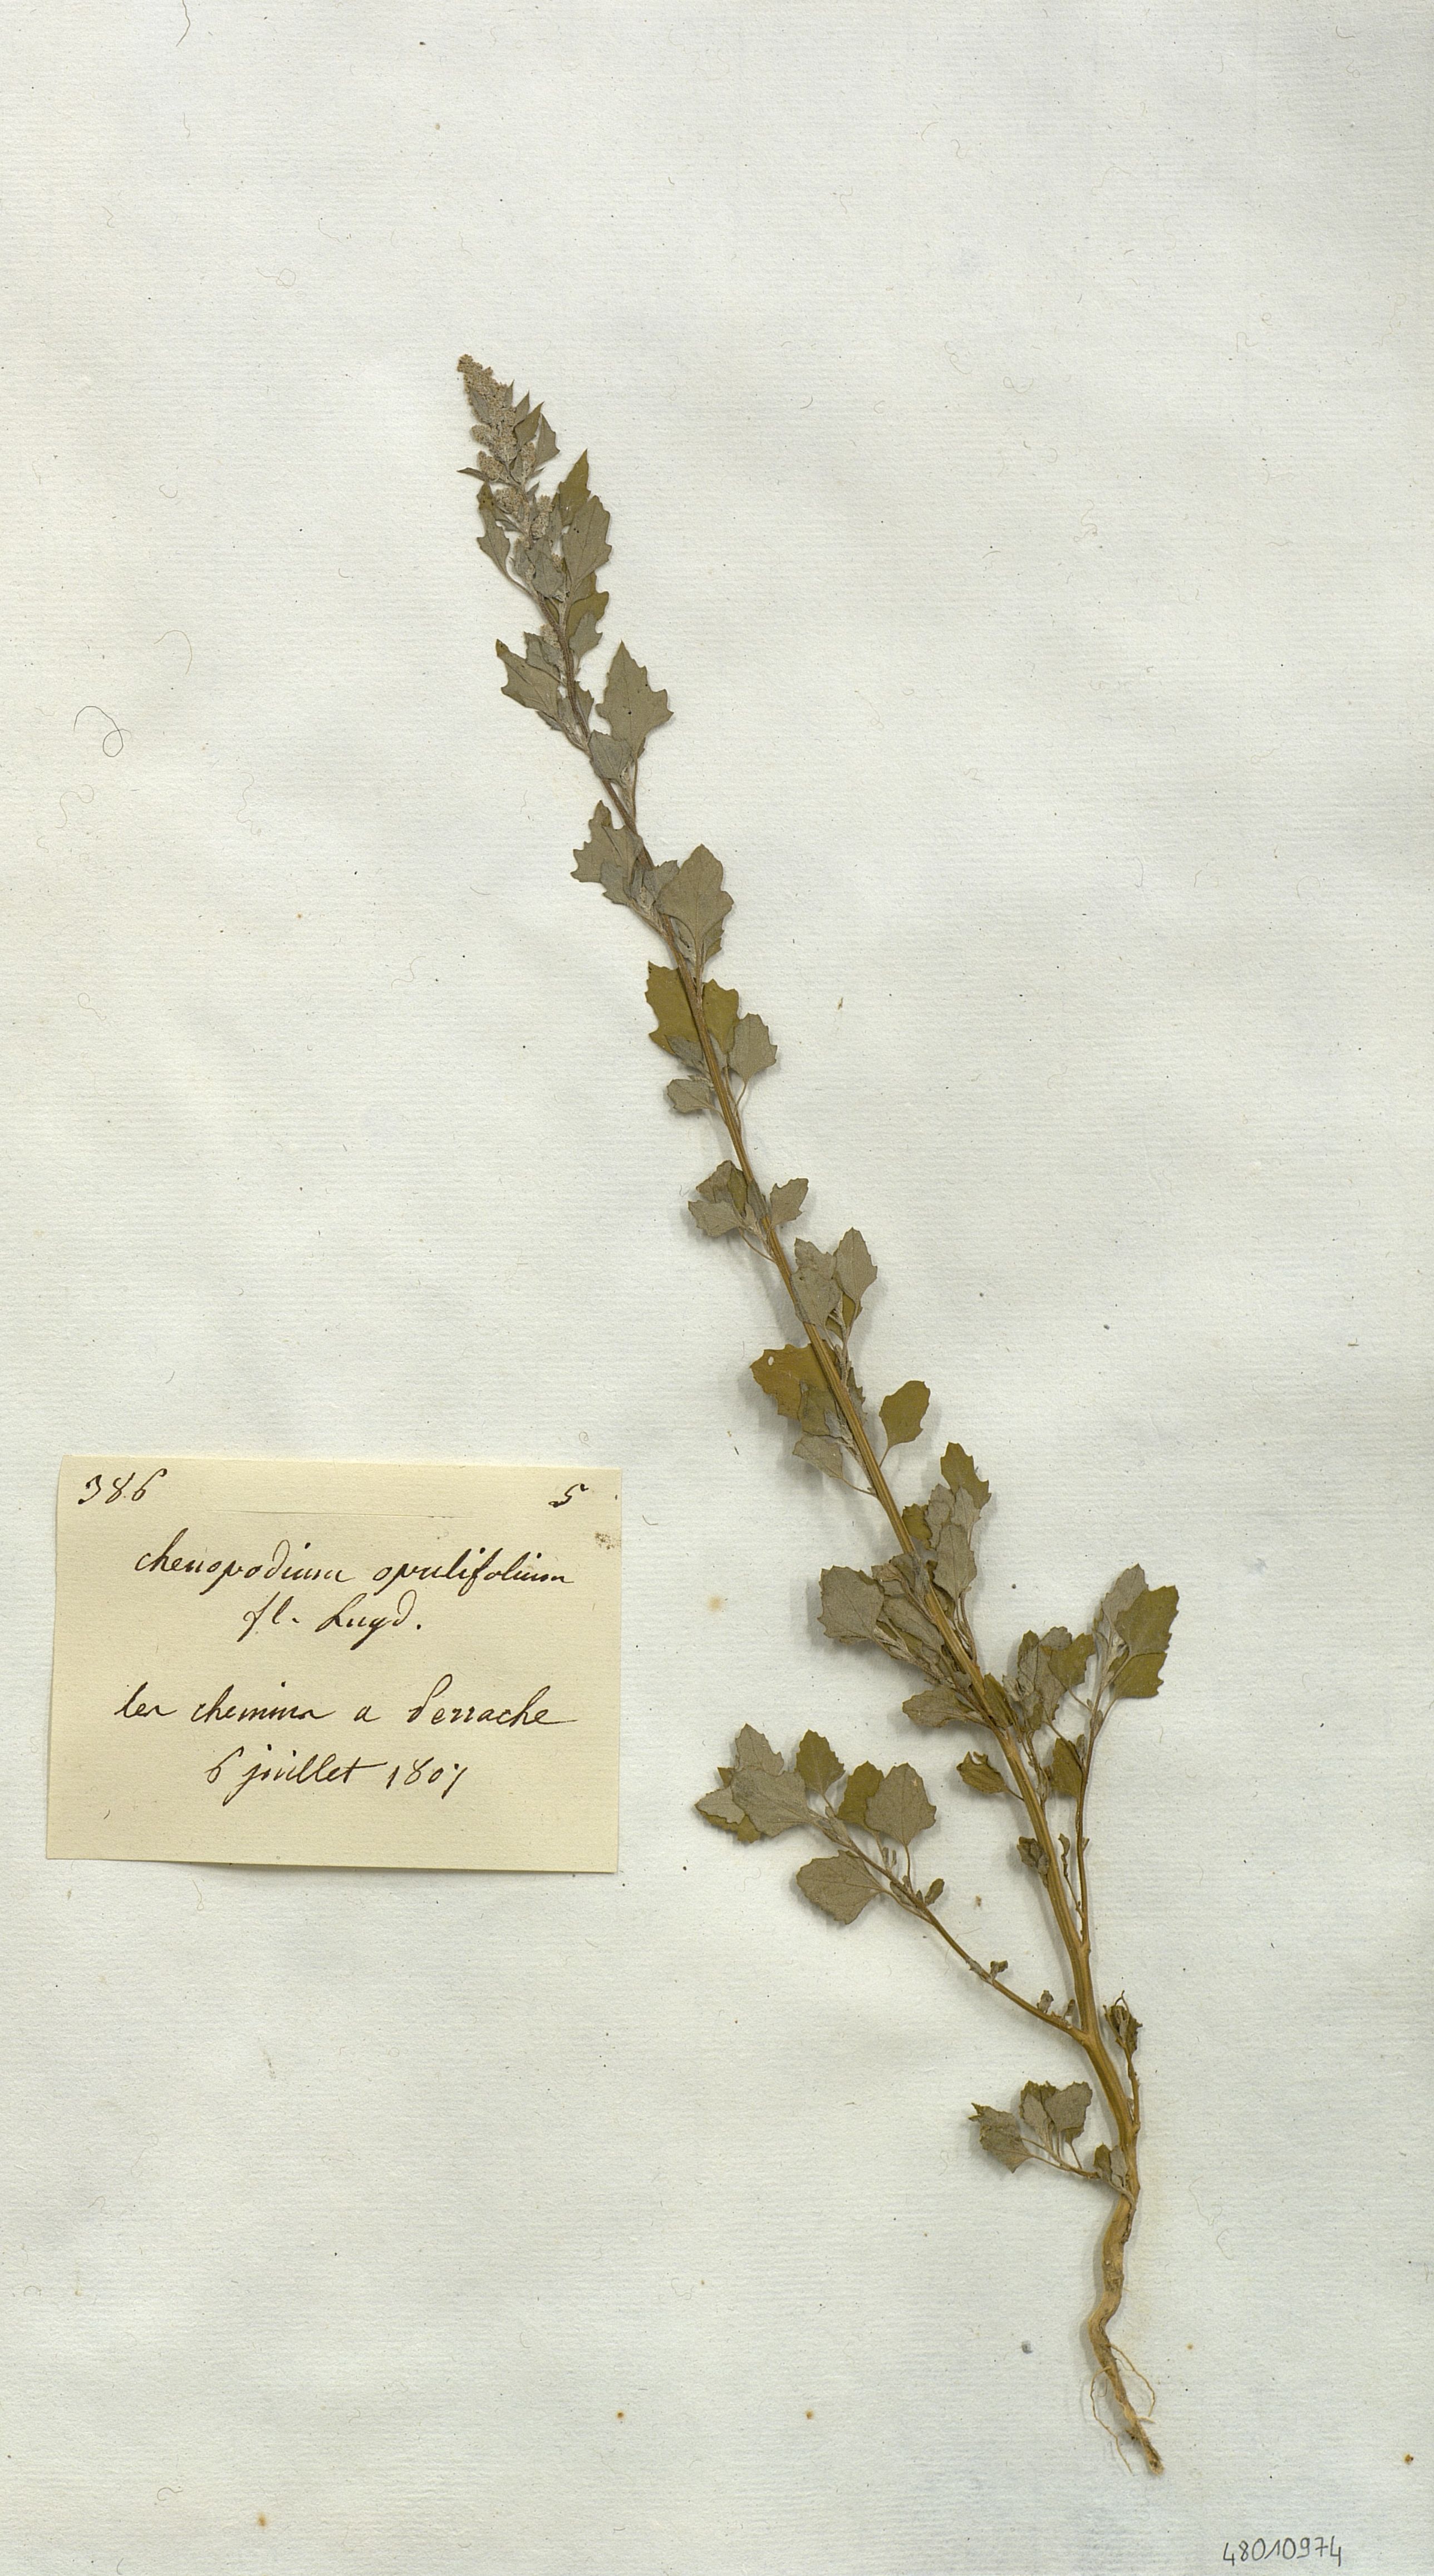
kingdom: Plantae
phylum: Tracheophyta
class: Magnoliopsida
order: Caryophyllales
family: Amaranthaceae
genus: Chenopodium
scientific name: Chenopodium opulifolium
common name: Grey goosefoot
